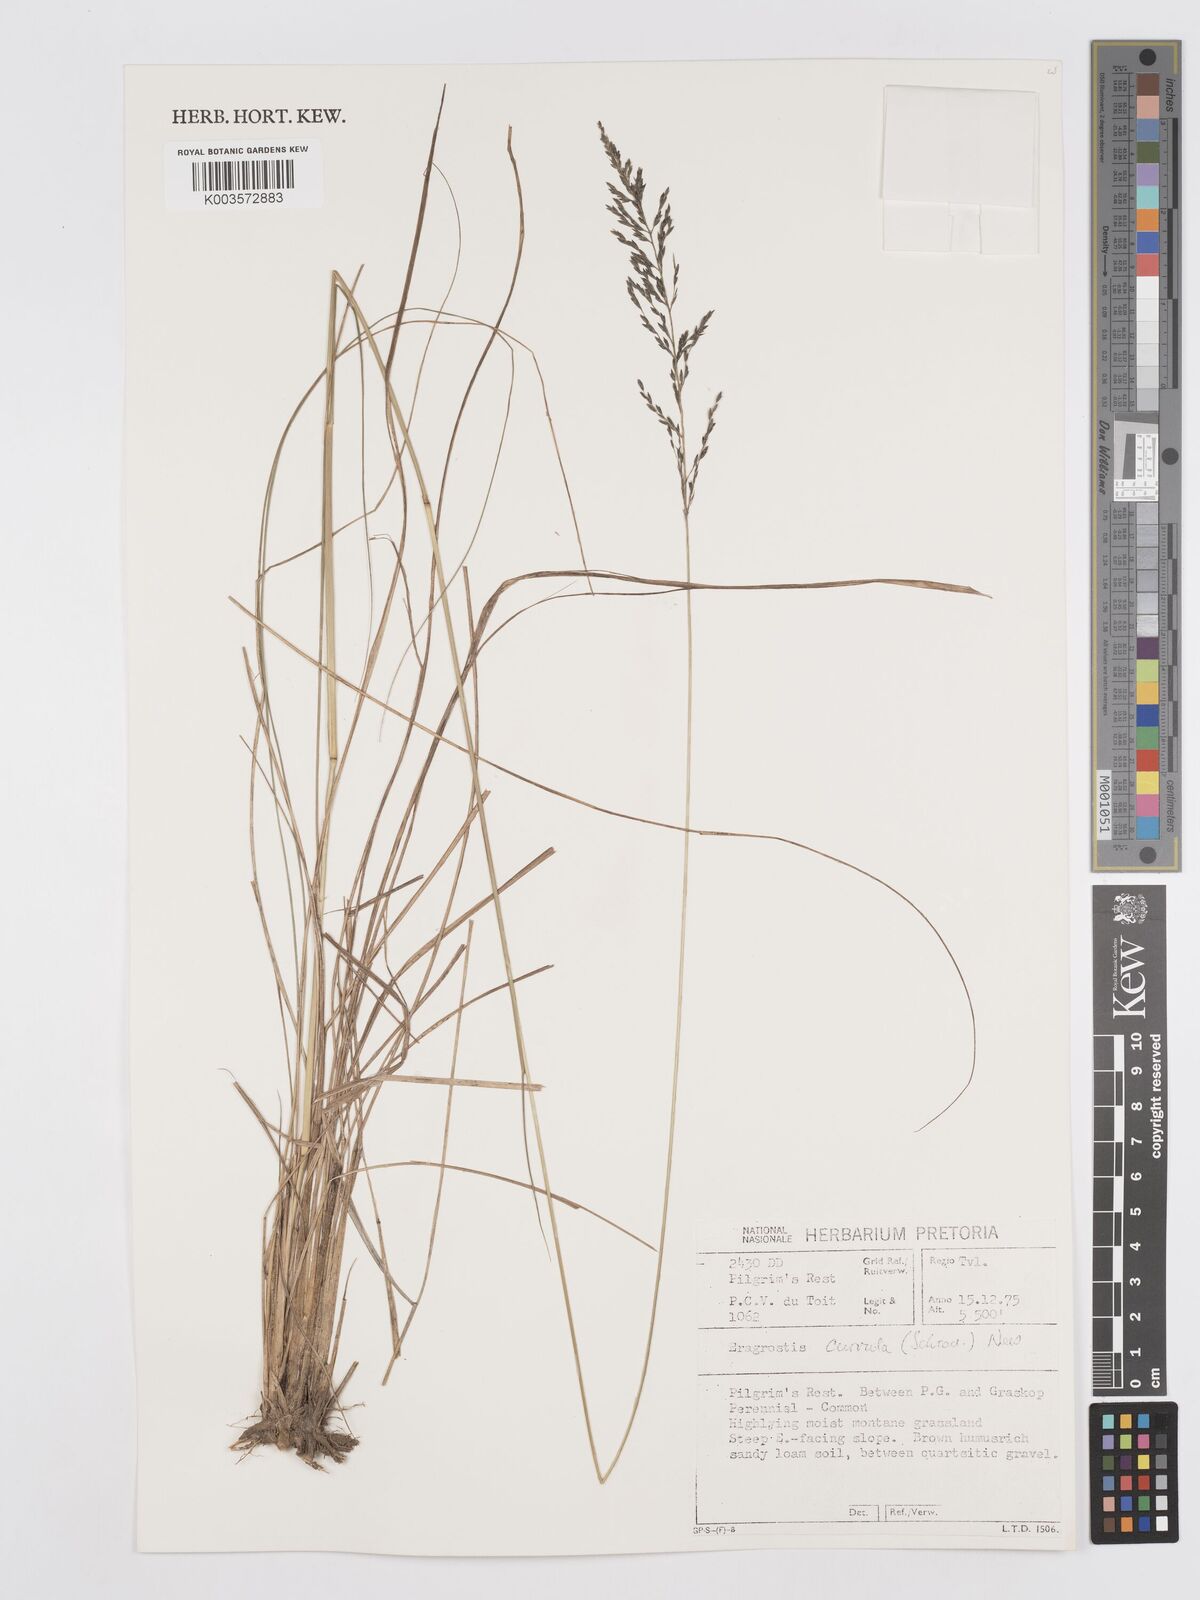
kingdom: Plantae
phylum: Tracheophyta
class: Liliopsida
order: Poales
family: Poaceae
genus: Eragrostis
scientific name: Eragrostis curvula
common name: African love-grass
